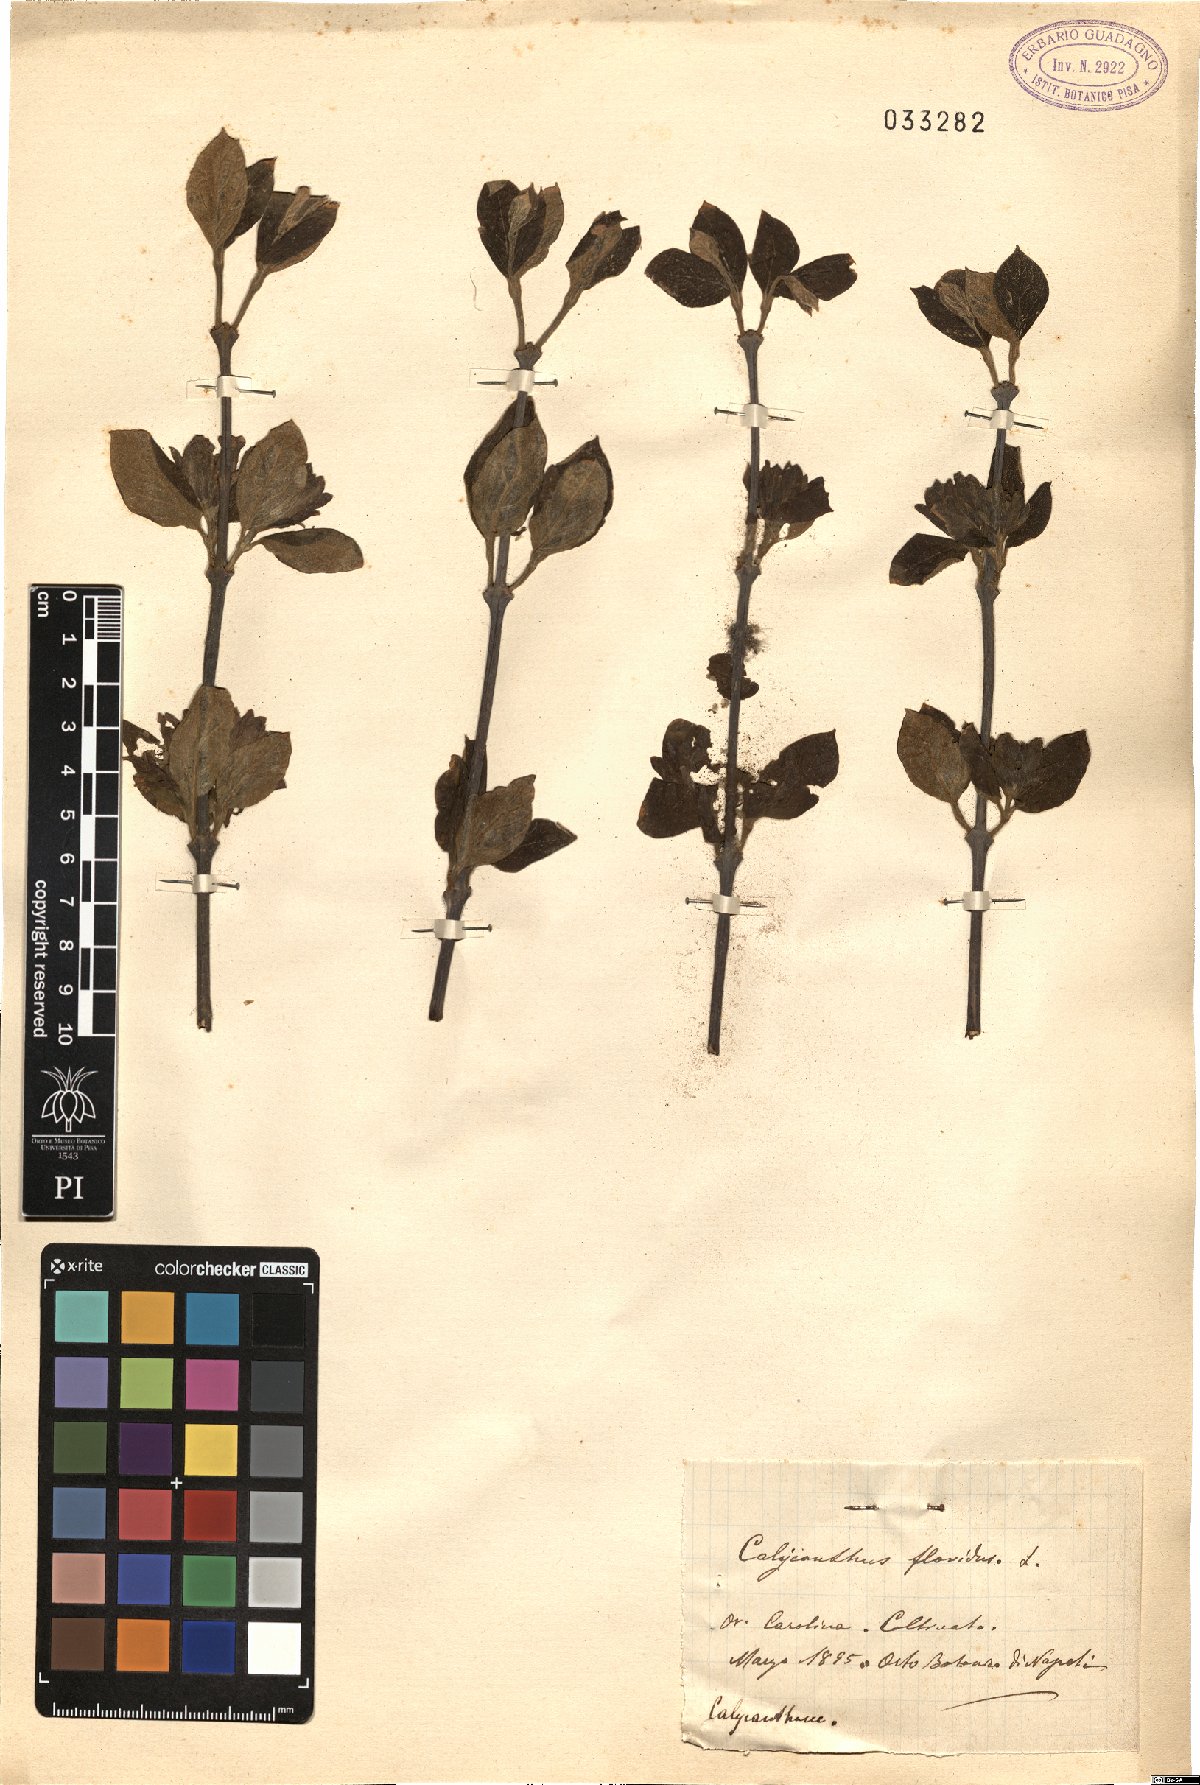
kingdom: Plantae
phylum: Tracheophyta
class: Magnoliopsida
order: Laurales
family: Calycanthaceae
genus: Calycanthus
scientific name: Calycanthus floridus
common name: Carolina-allspice
